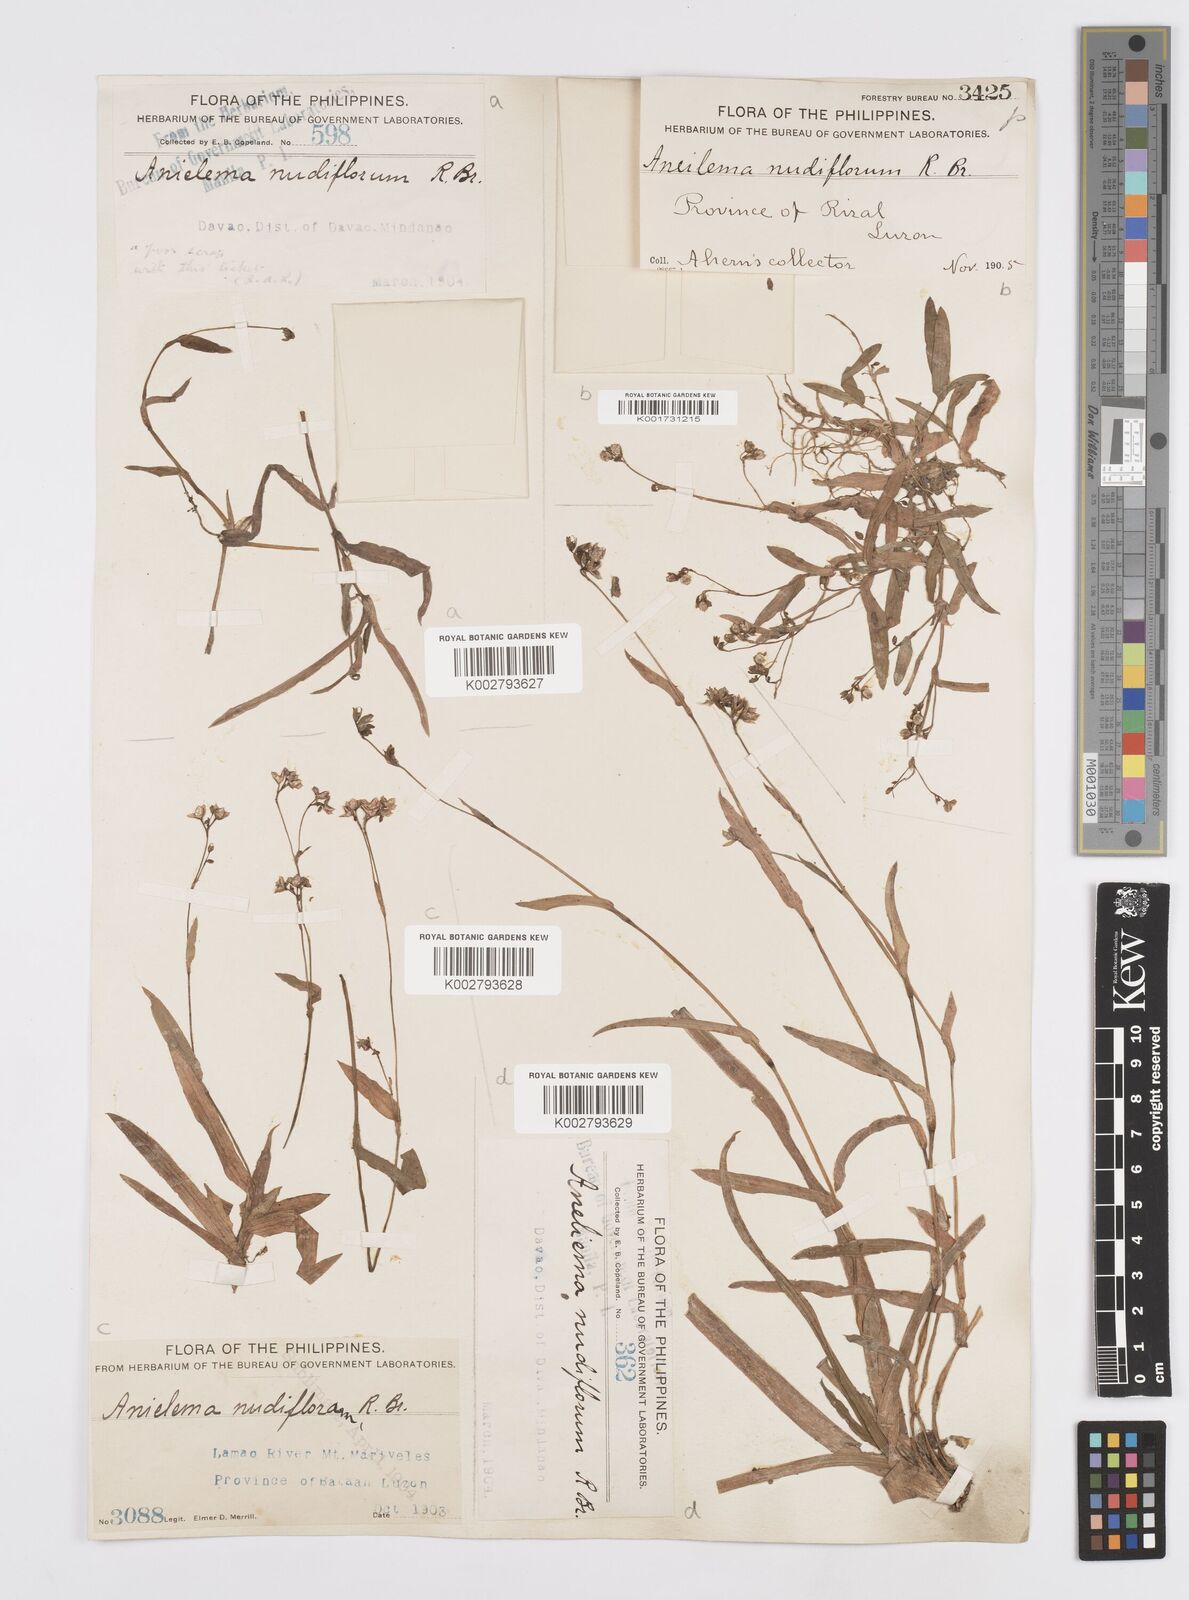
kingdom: Plantae
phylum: Tracheophyta
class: Liliopsida
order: Commelinales
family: Commelinaceae
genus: Murdannia
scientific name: Murdannia nudiflora
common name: Nakedstem dewflower
